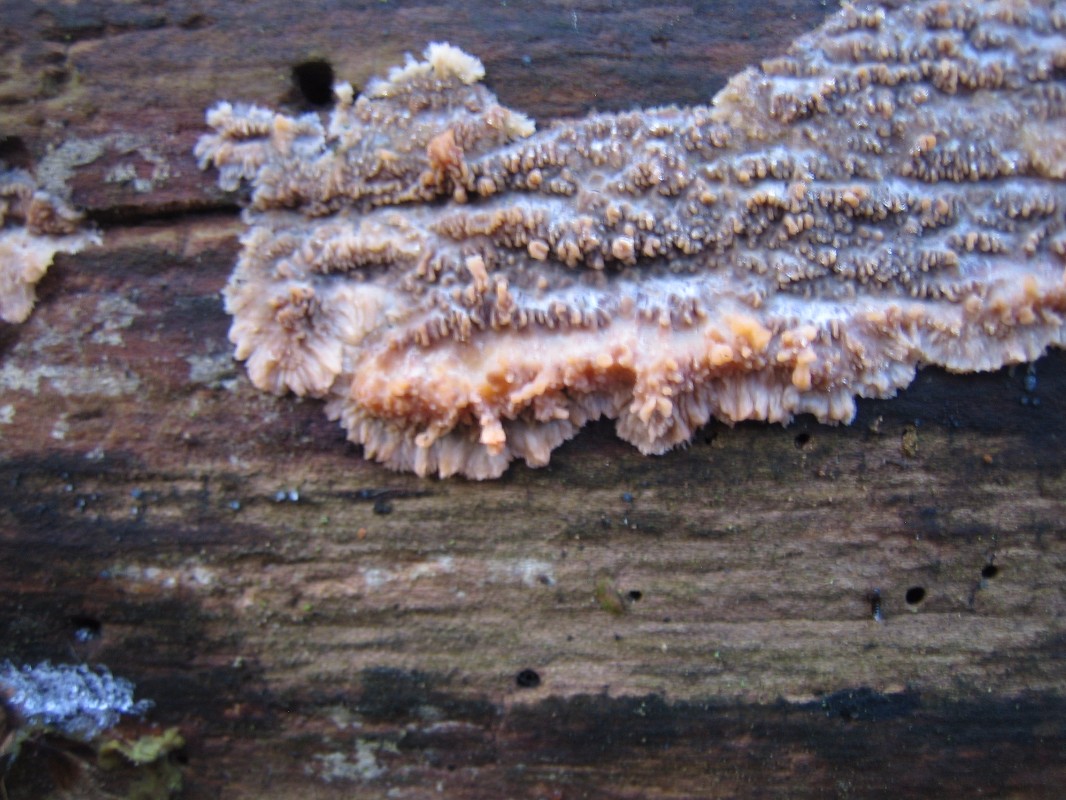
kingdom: Fungi
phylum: Basidiomycota
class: Agaricomycetes
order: Polyporales
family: Meruliaceae
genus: Phlebia
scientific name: Phlebia radiata
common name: stråle-åresvamp
